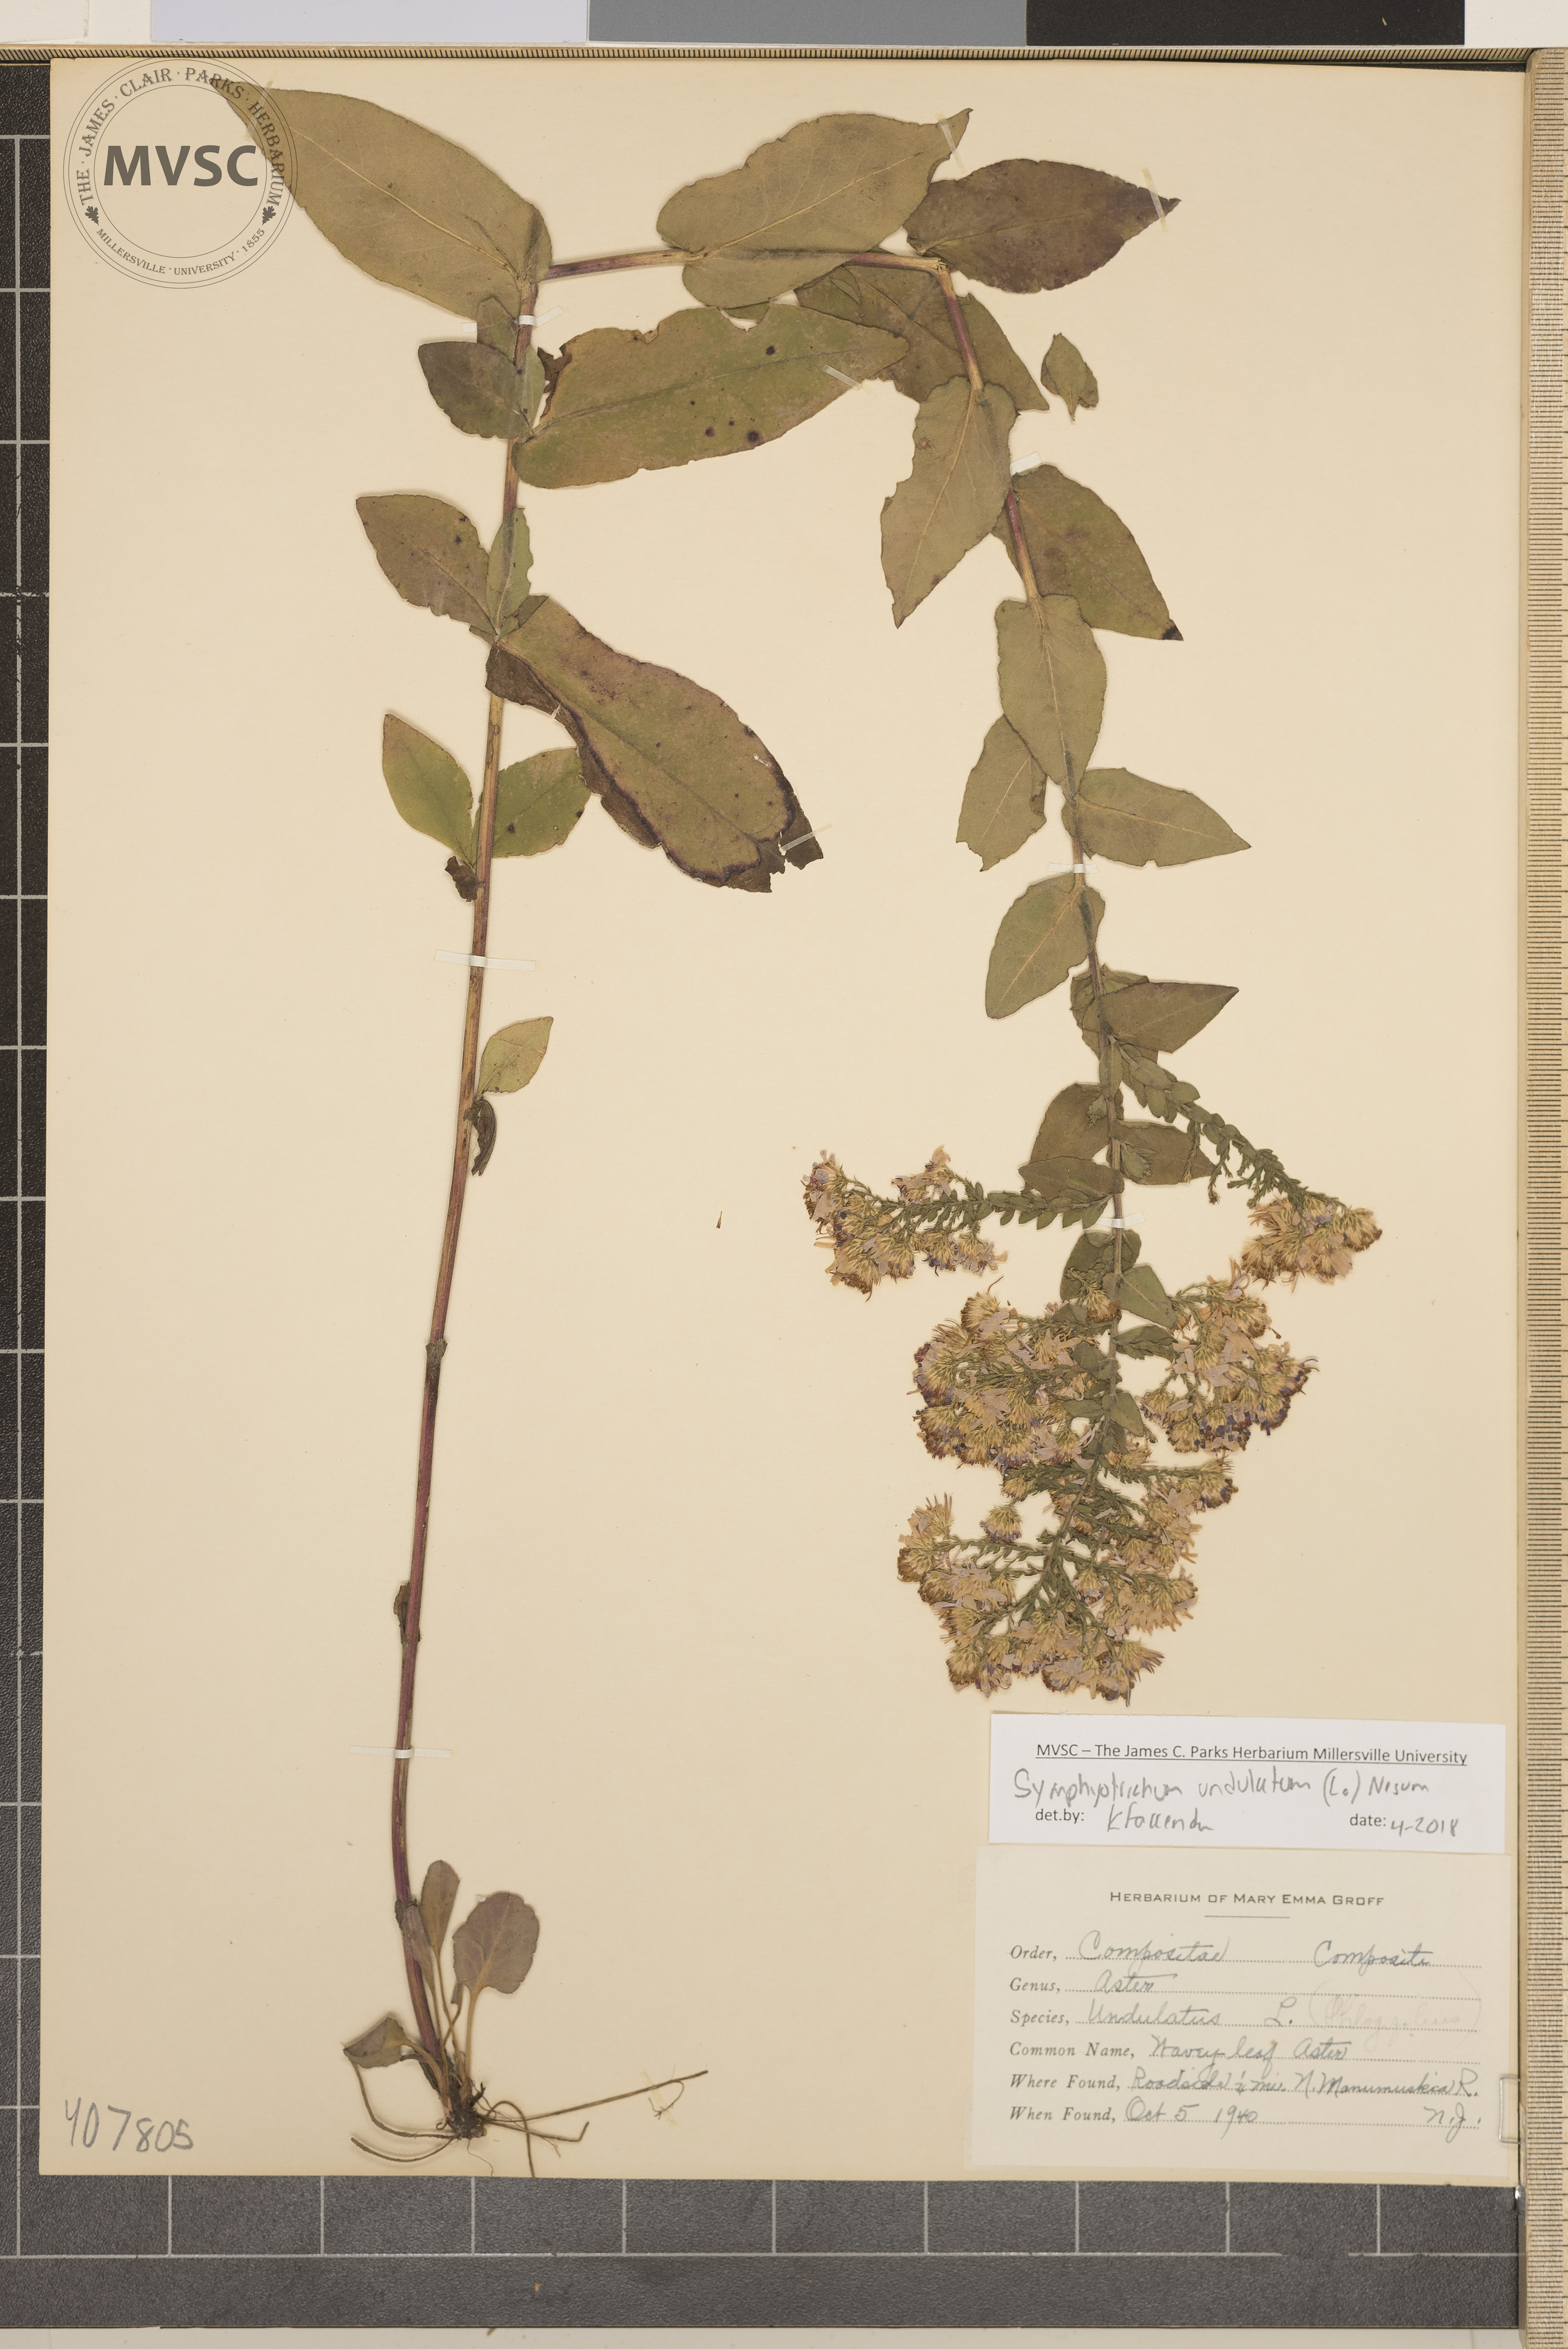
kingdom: Plantae
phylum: Tracheophyta
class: Magnoliopsida
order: Asterales
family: Asteraceae
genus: Symphyotrichum
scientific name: Symphyotrichum undulatum
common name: Wavy-leaf Aster
